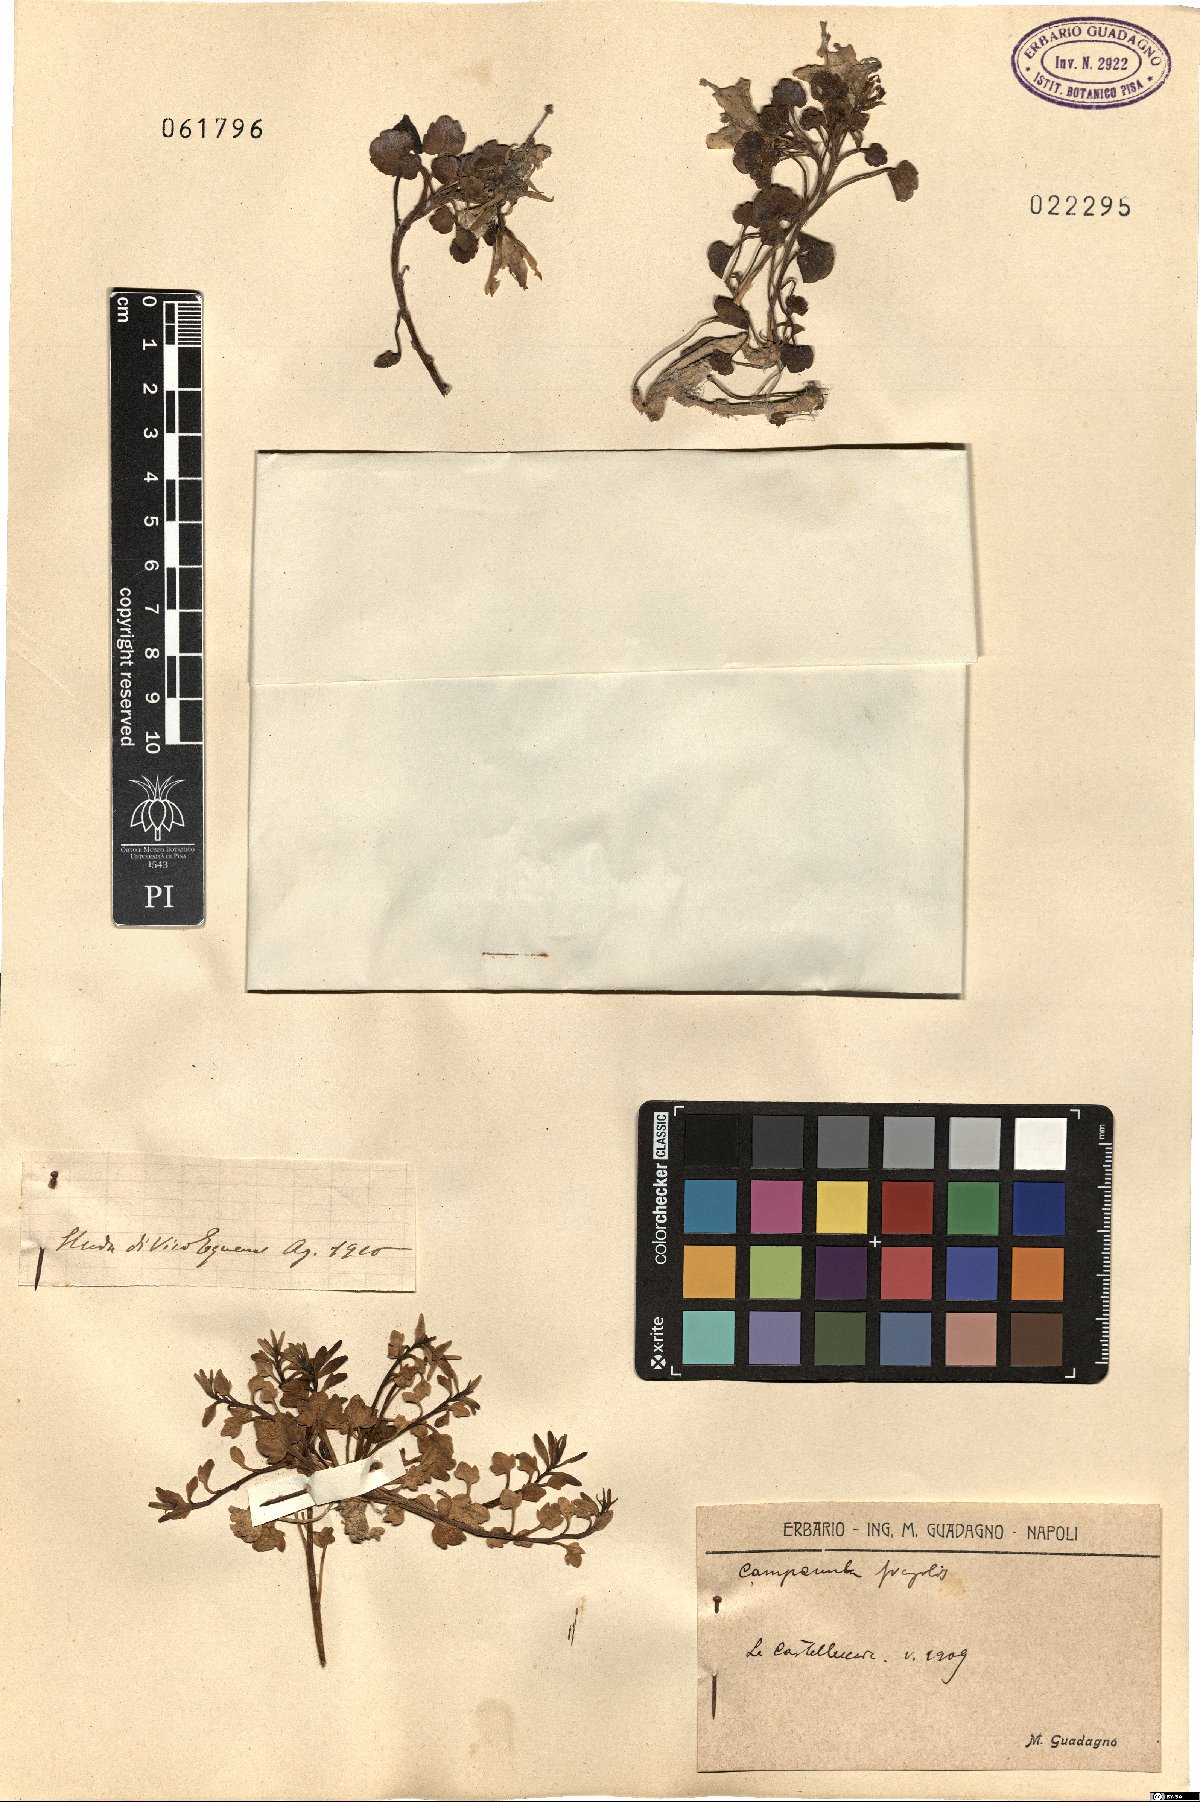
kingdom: Plantae
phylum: Tracheophyta
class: Magnoliopsida
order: Asterales
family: Campanulaceae
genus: Campanula
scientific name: Campanula
